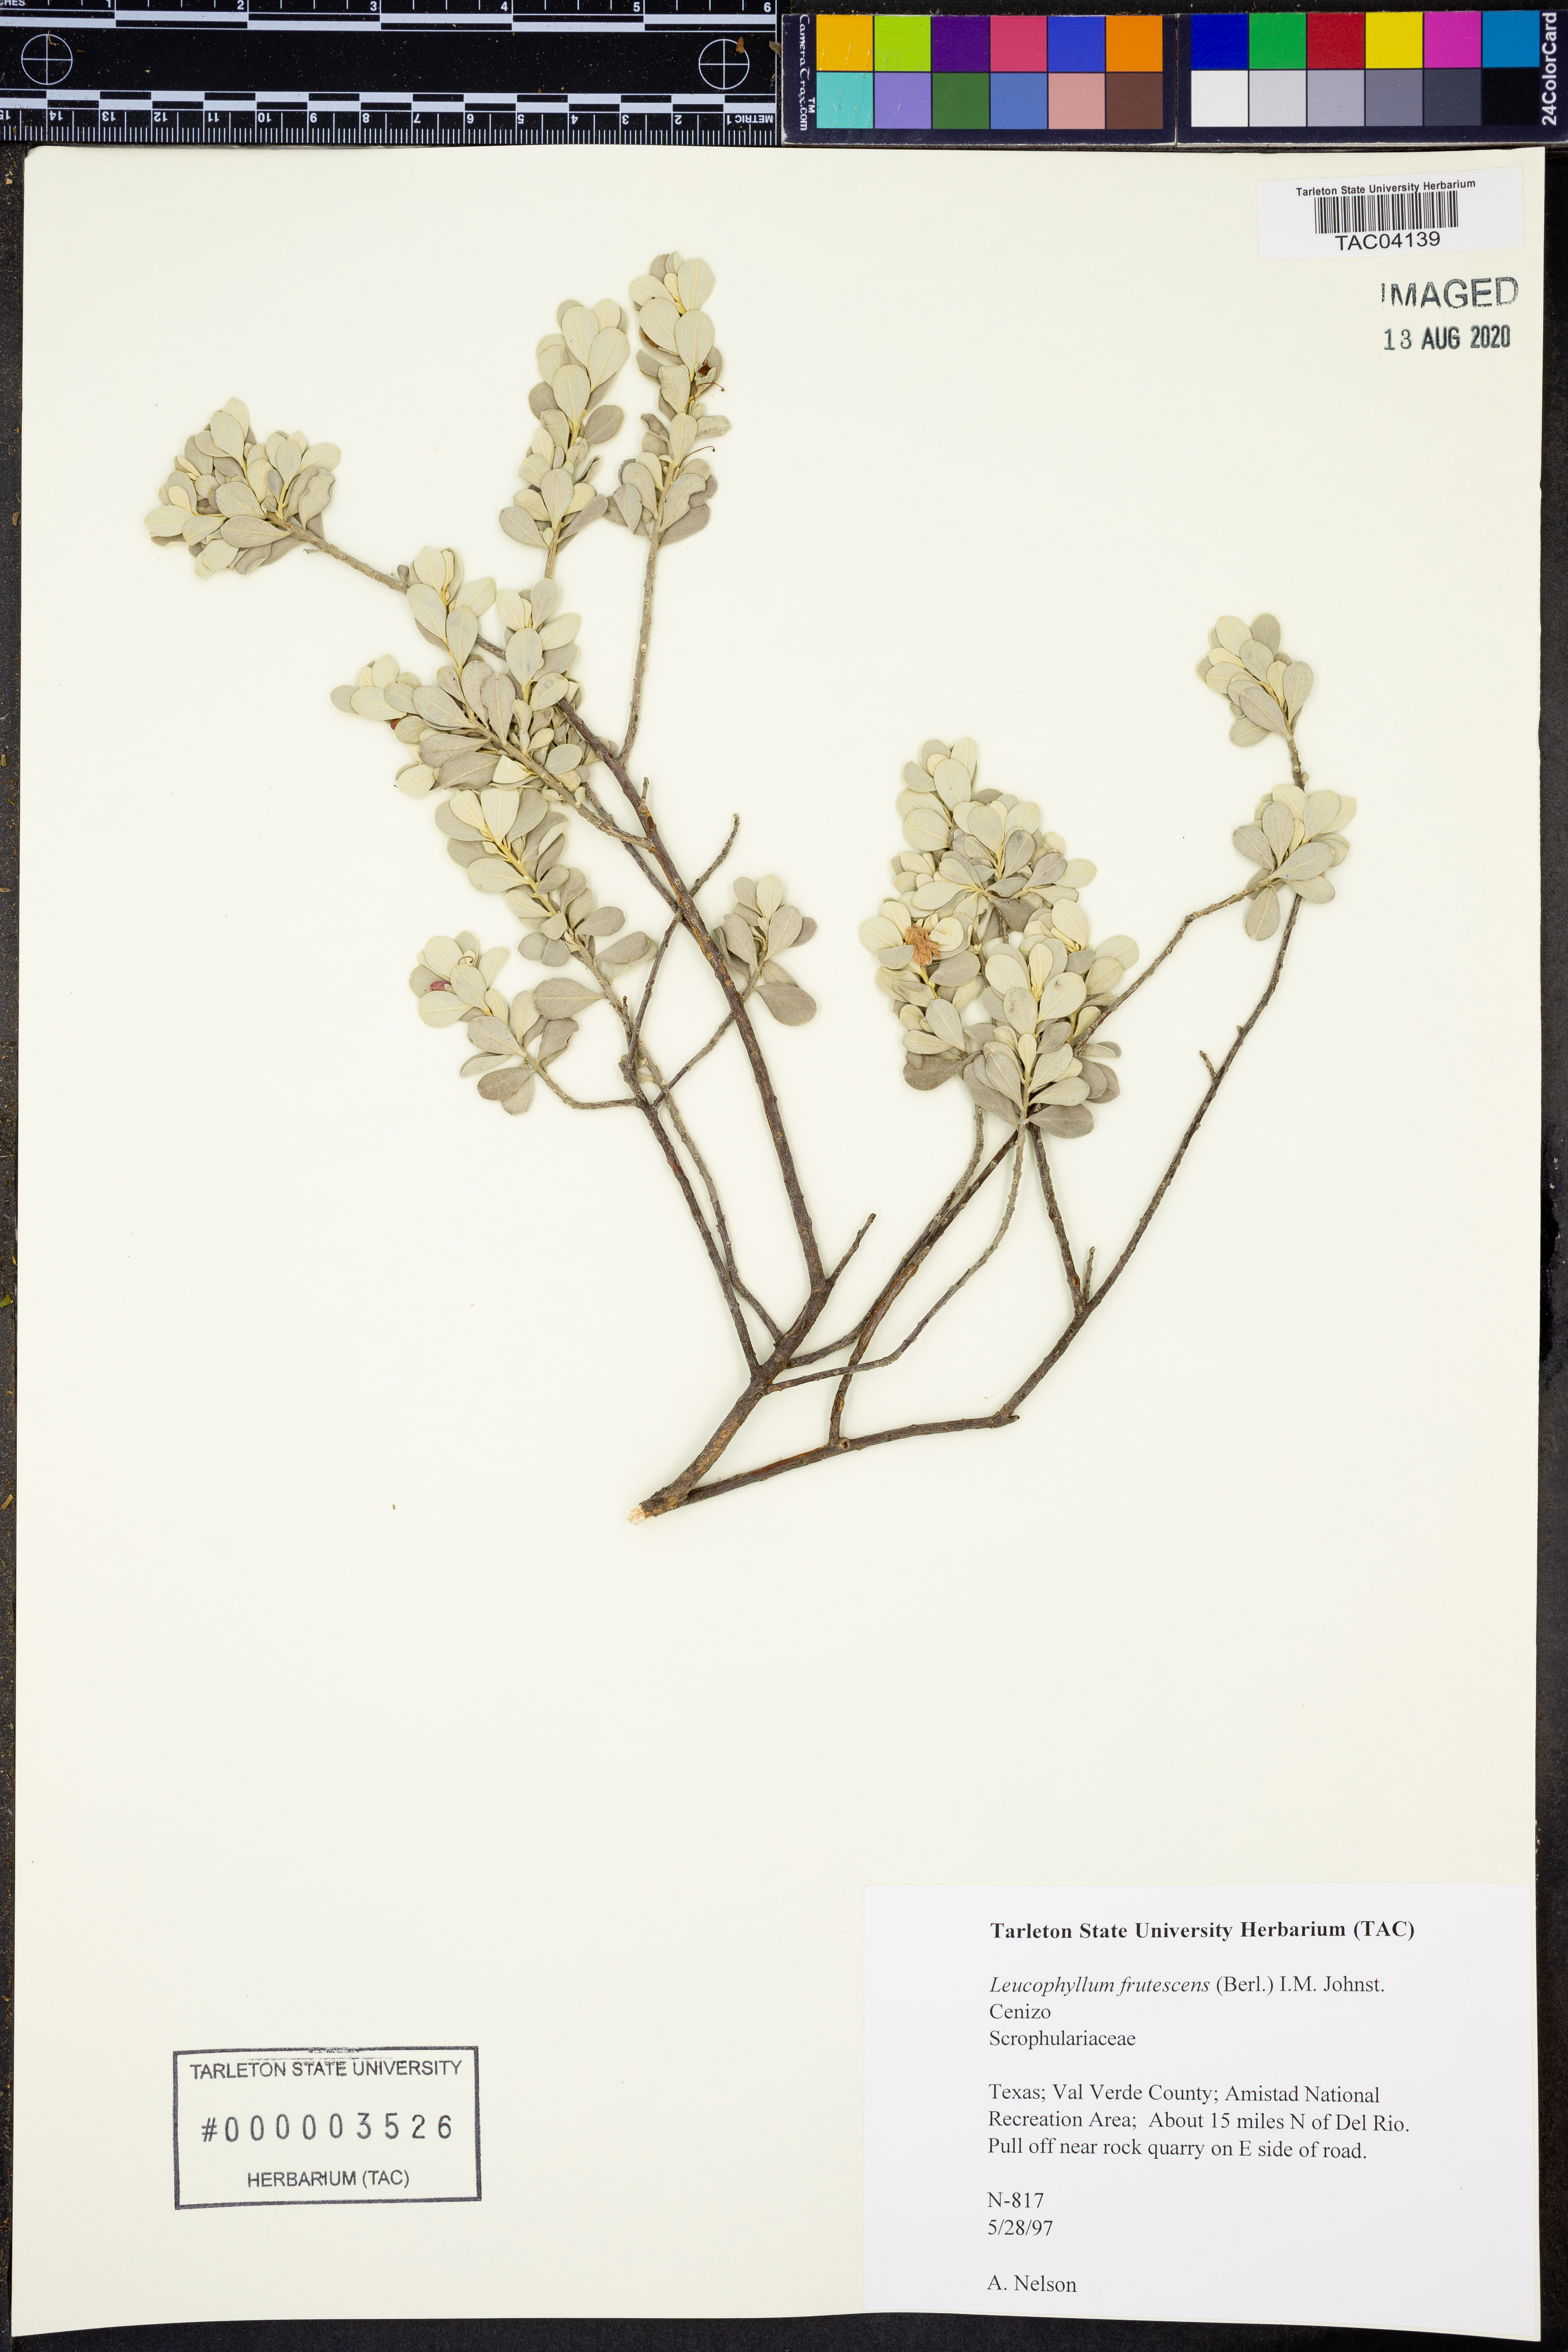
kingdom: Plantae
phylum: Tracheophyta
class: Magnoliopsida
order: Lamiales
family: Scrophulariaceae
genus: Leucophyllum
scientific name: Leucophyllum frutescens
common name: Texas silverleaf
